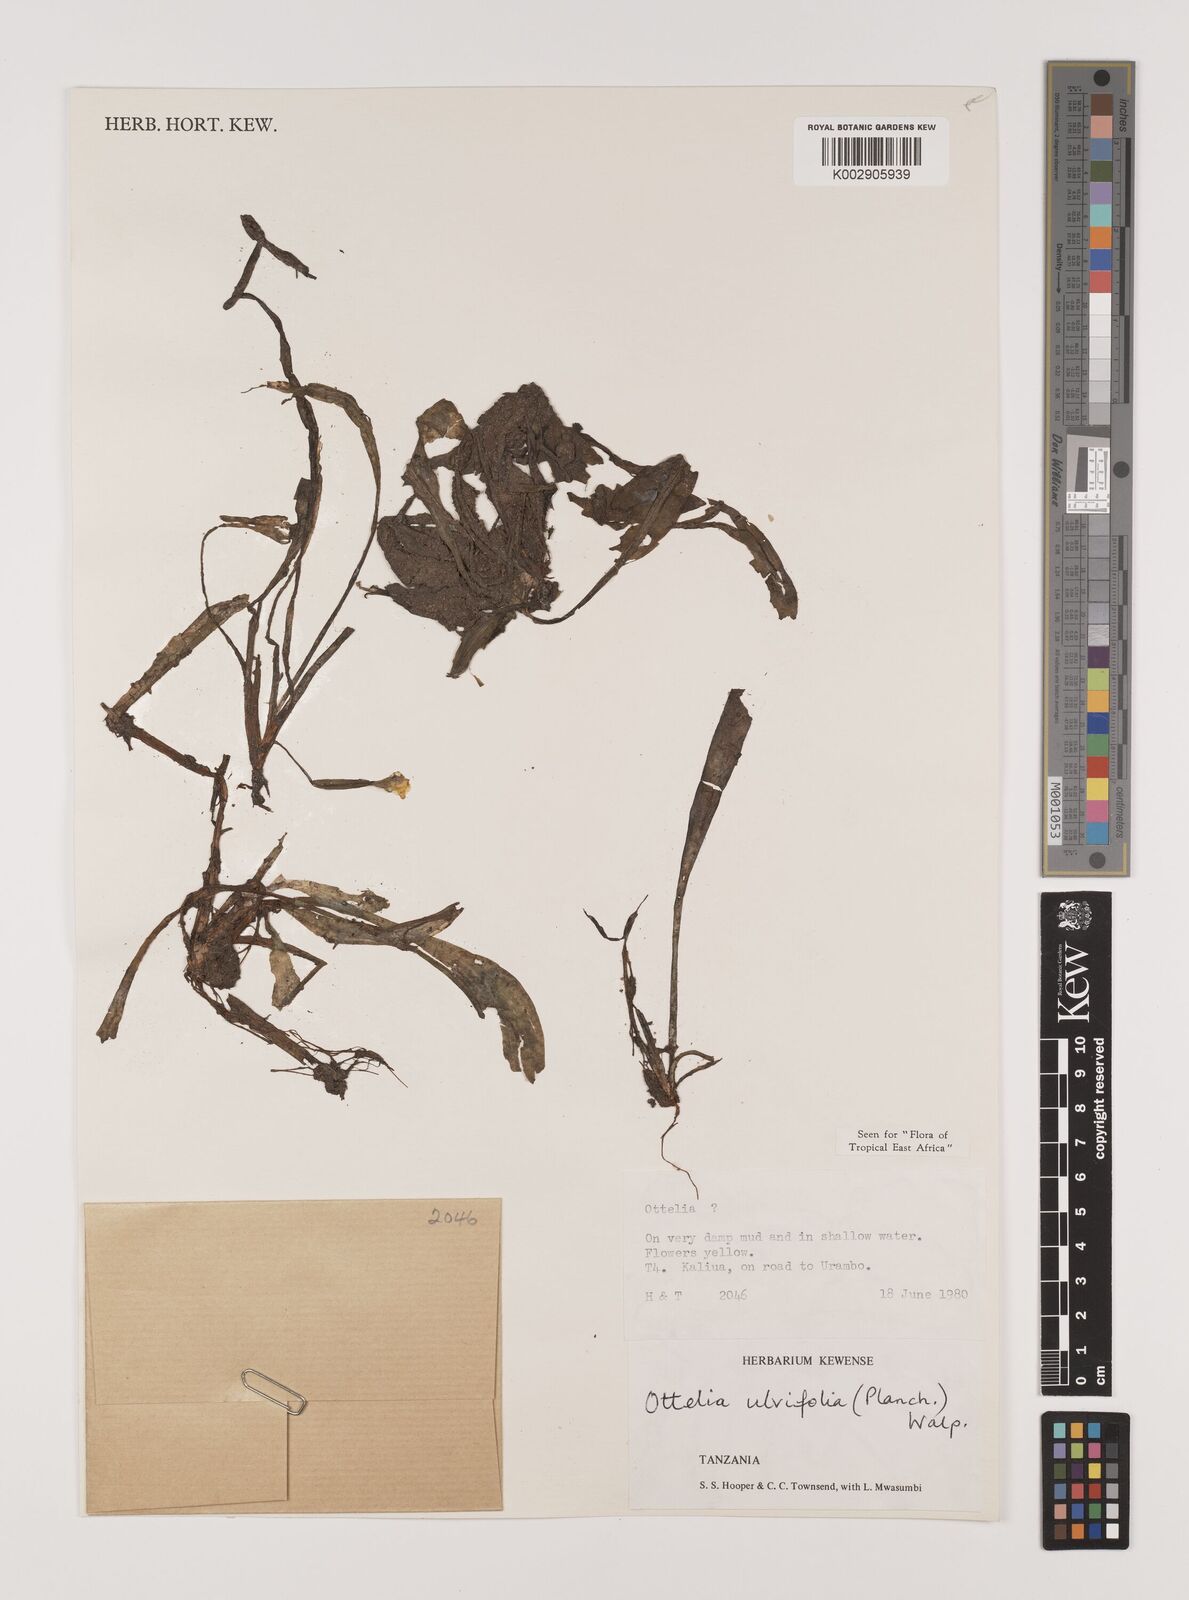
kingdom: Plantae
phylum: Tracheophyta
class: Liliopsida
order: Alismatales
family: Hydrocharitaceae
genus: Ottelia
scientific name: Ottelia ulvifolia
